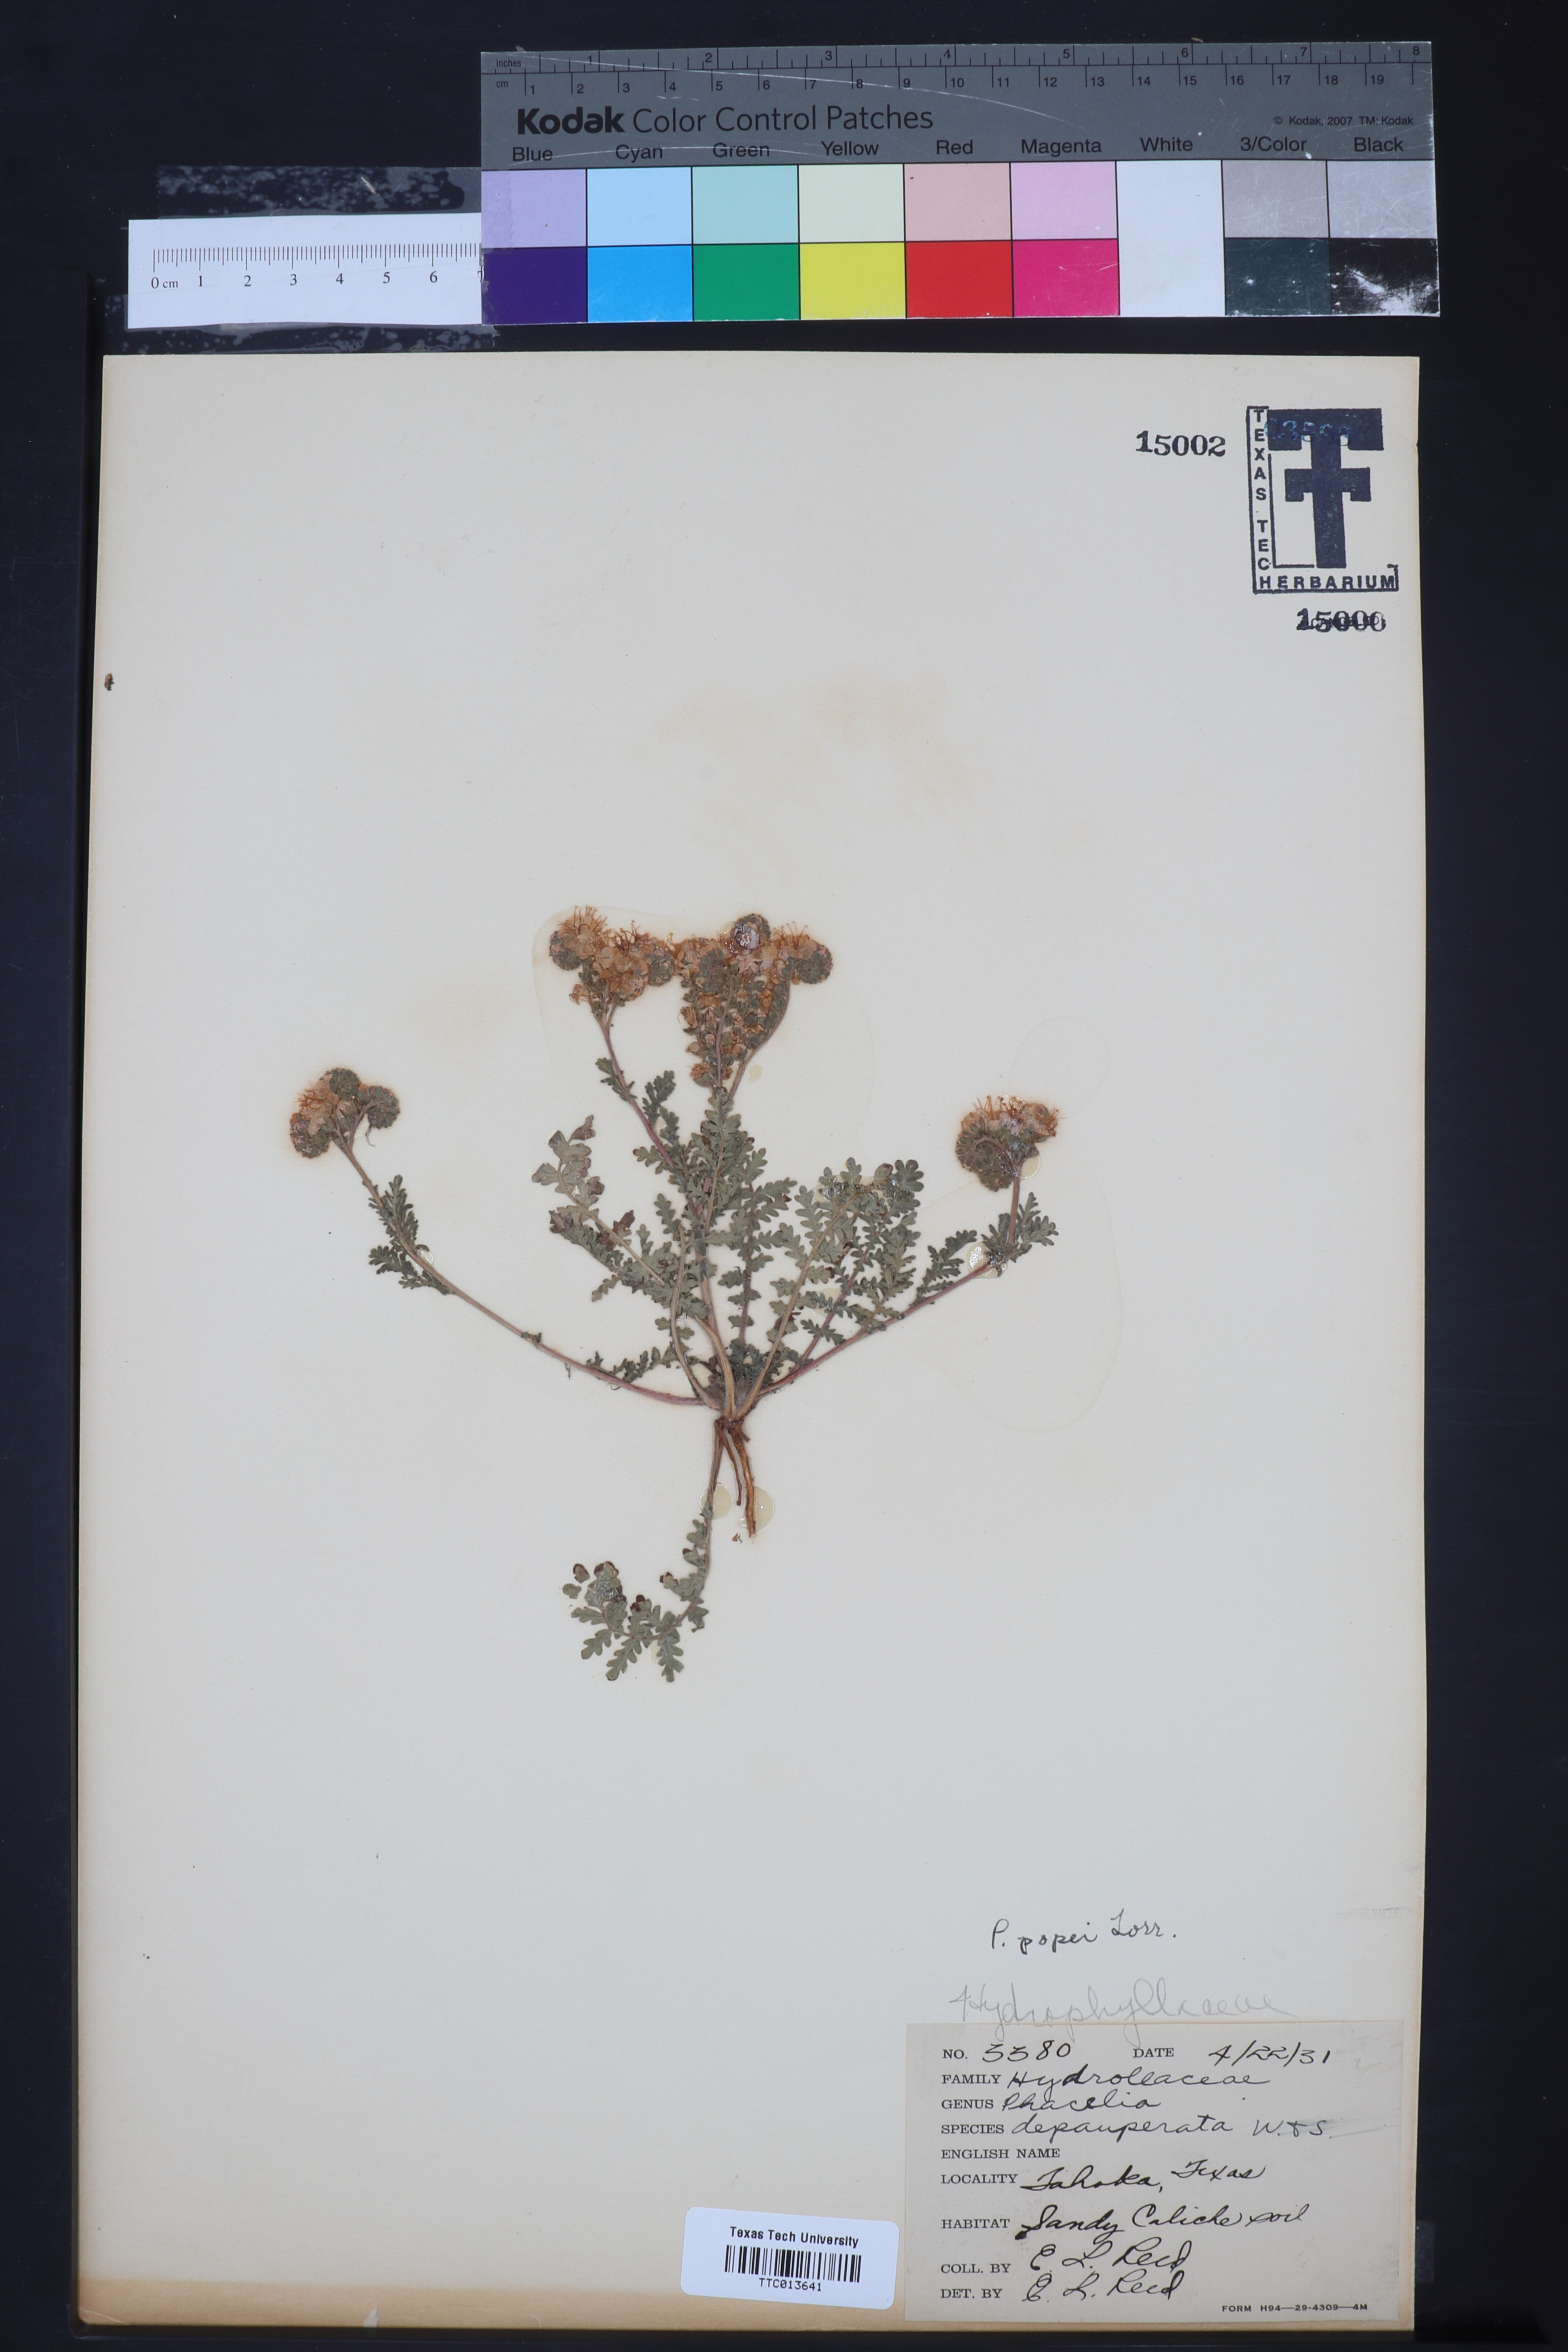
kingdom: Plantae
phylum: Tracheophyta
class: Magnoliopsida
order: Boraginales
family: Hydrophyllaceae
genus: Phacelia
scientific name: Phacelia popei
